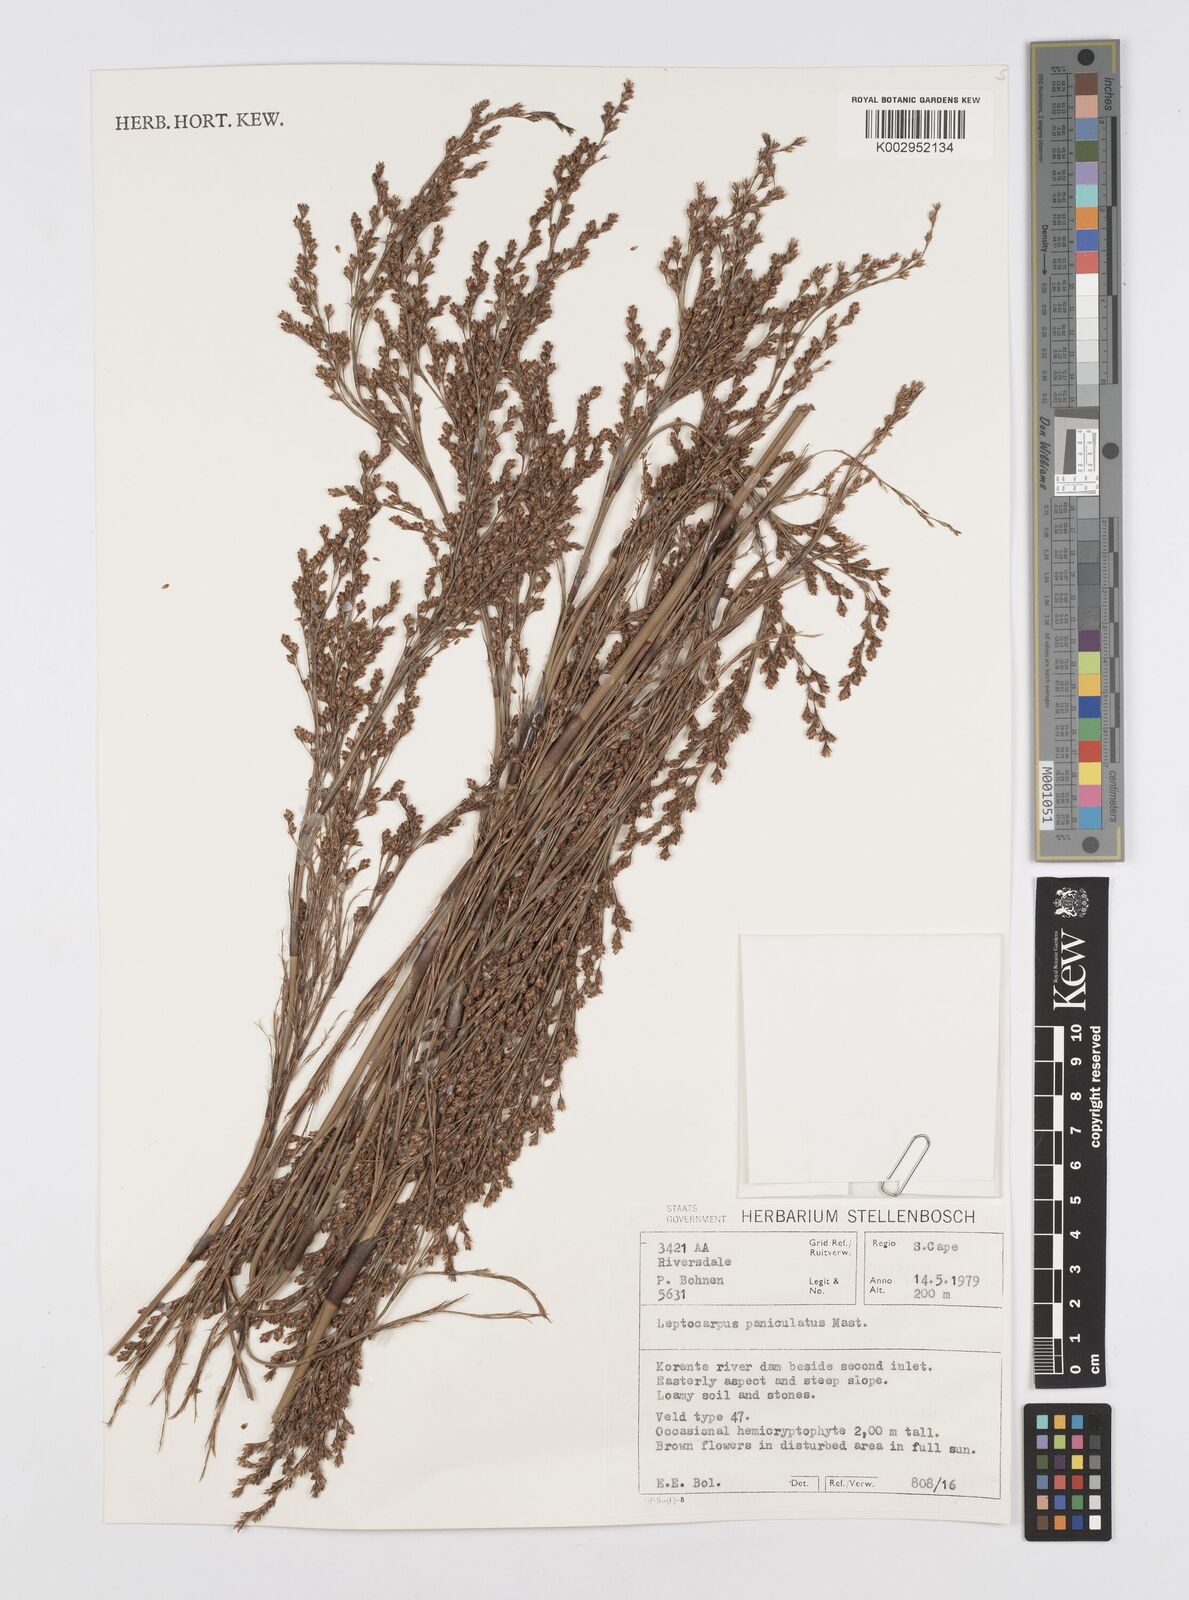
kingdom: Plantae
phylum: Tracheophyta
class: Liliopsida
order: Poales
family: Restionaceae
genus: Restio
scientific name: Restio paniculatus
